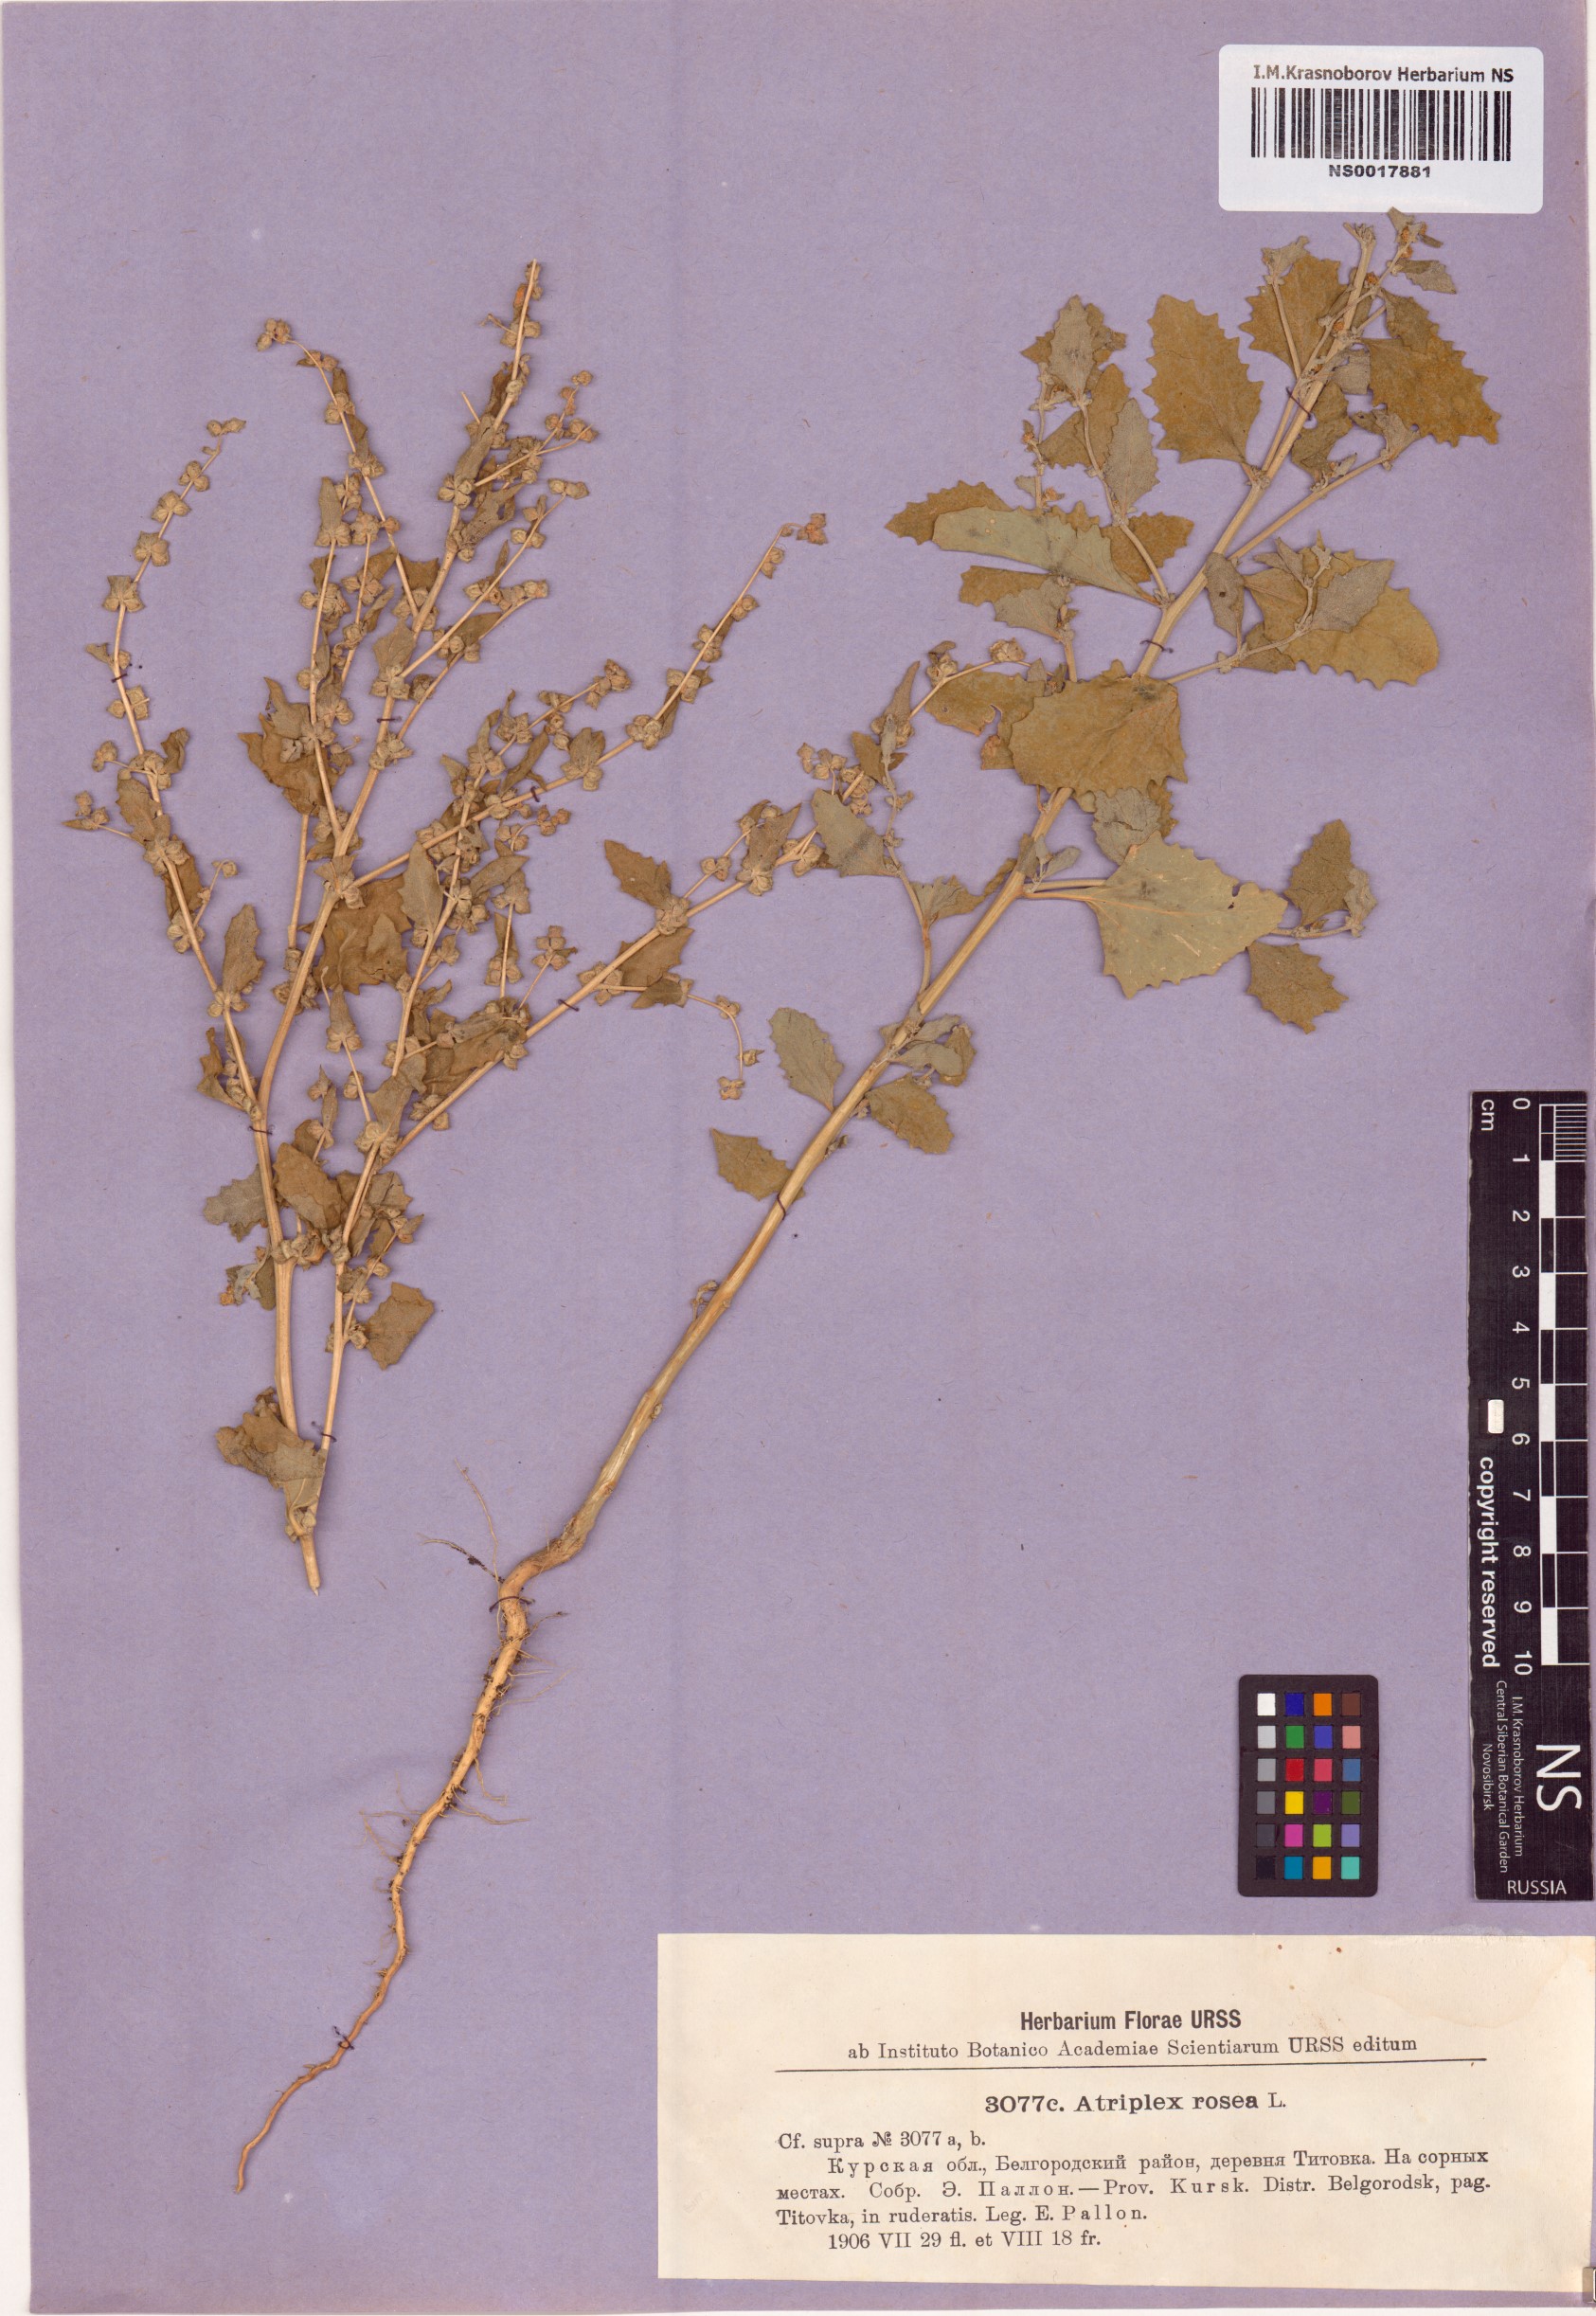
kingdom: Plantae
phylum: Tracheophyta
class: Magnoliopsida
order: Caryophyllales
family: Amaranthaceae
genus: Atriplex
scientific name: Atriplex rosea
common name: Tumbling saltweed
